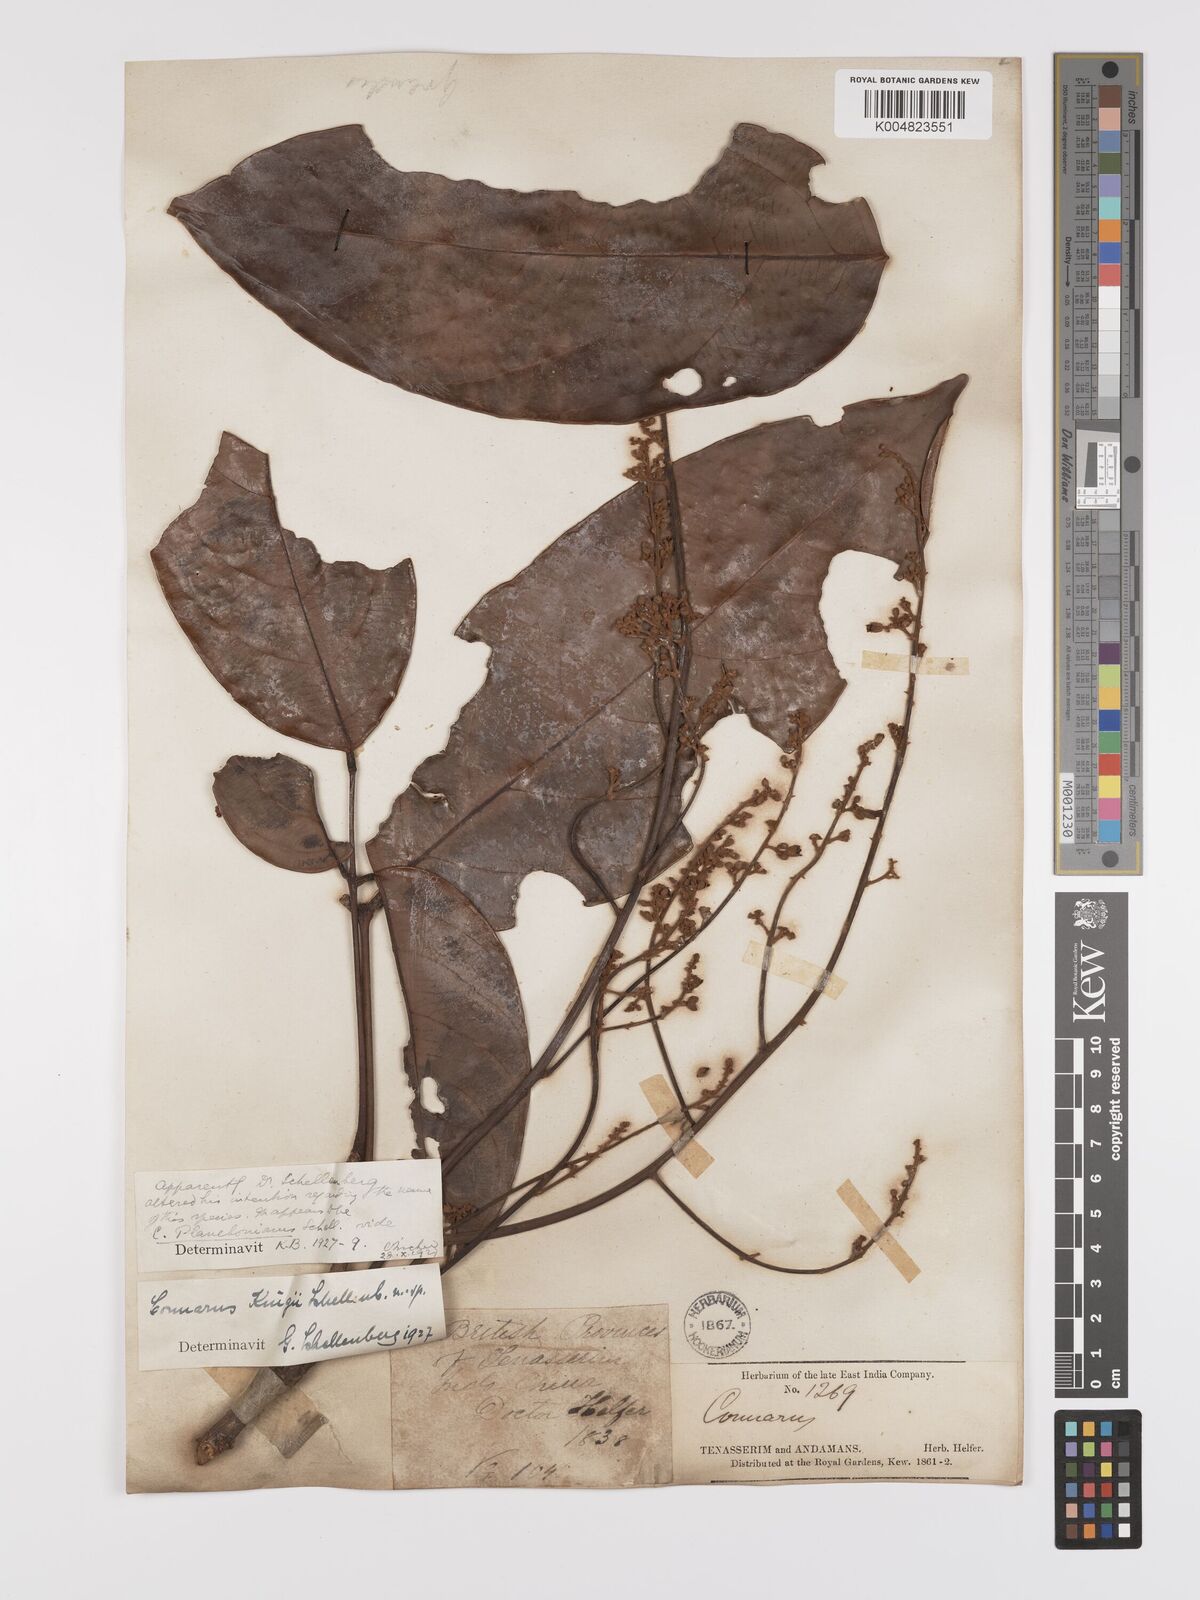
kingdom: Plantae
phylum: Tracheophyta
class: Magnoliopsida
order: Oxalidales
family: Connaraceae
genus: Connarus
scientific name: Connarus kingii
